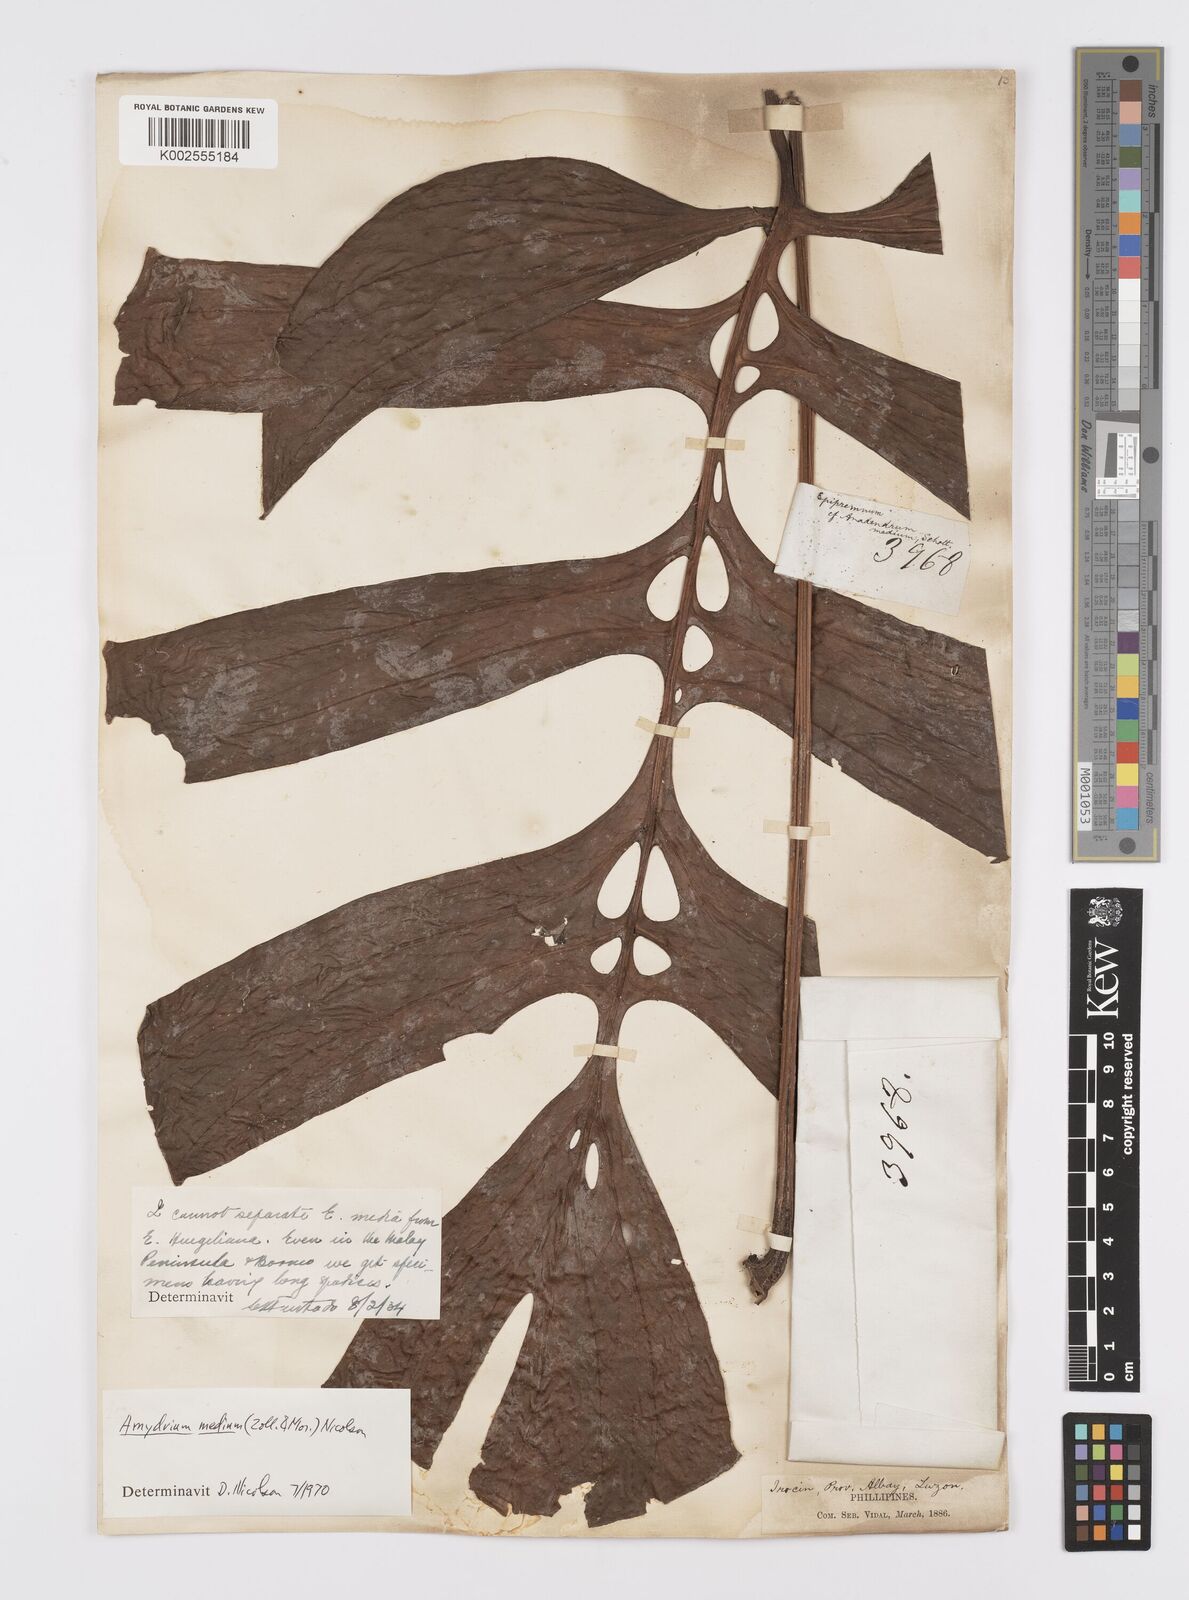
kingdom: Plantae
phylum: Tracheophyta
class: Liliopsida
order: Alismatales
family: Araceae
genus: Amydrium
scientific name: Amydrium medium
